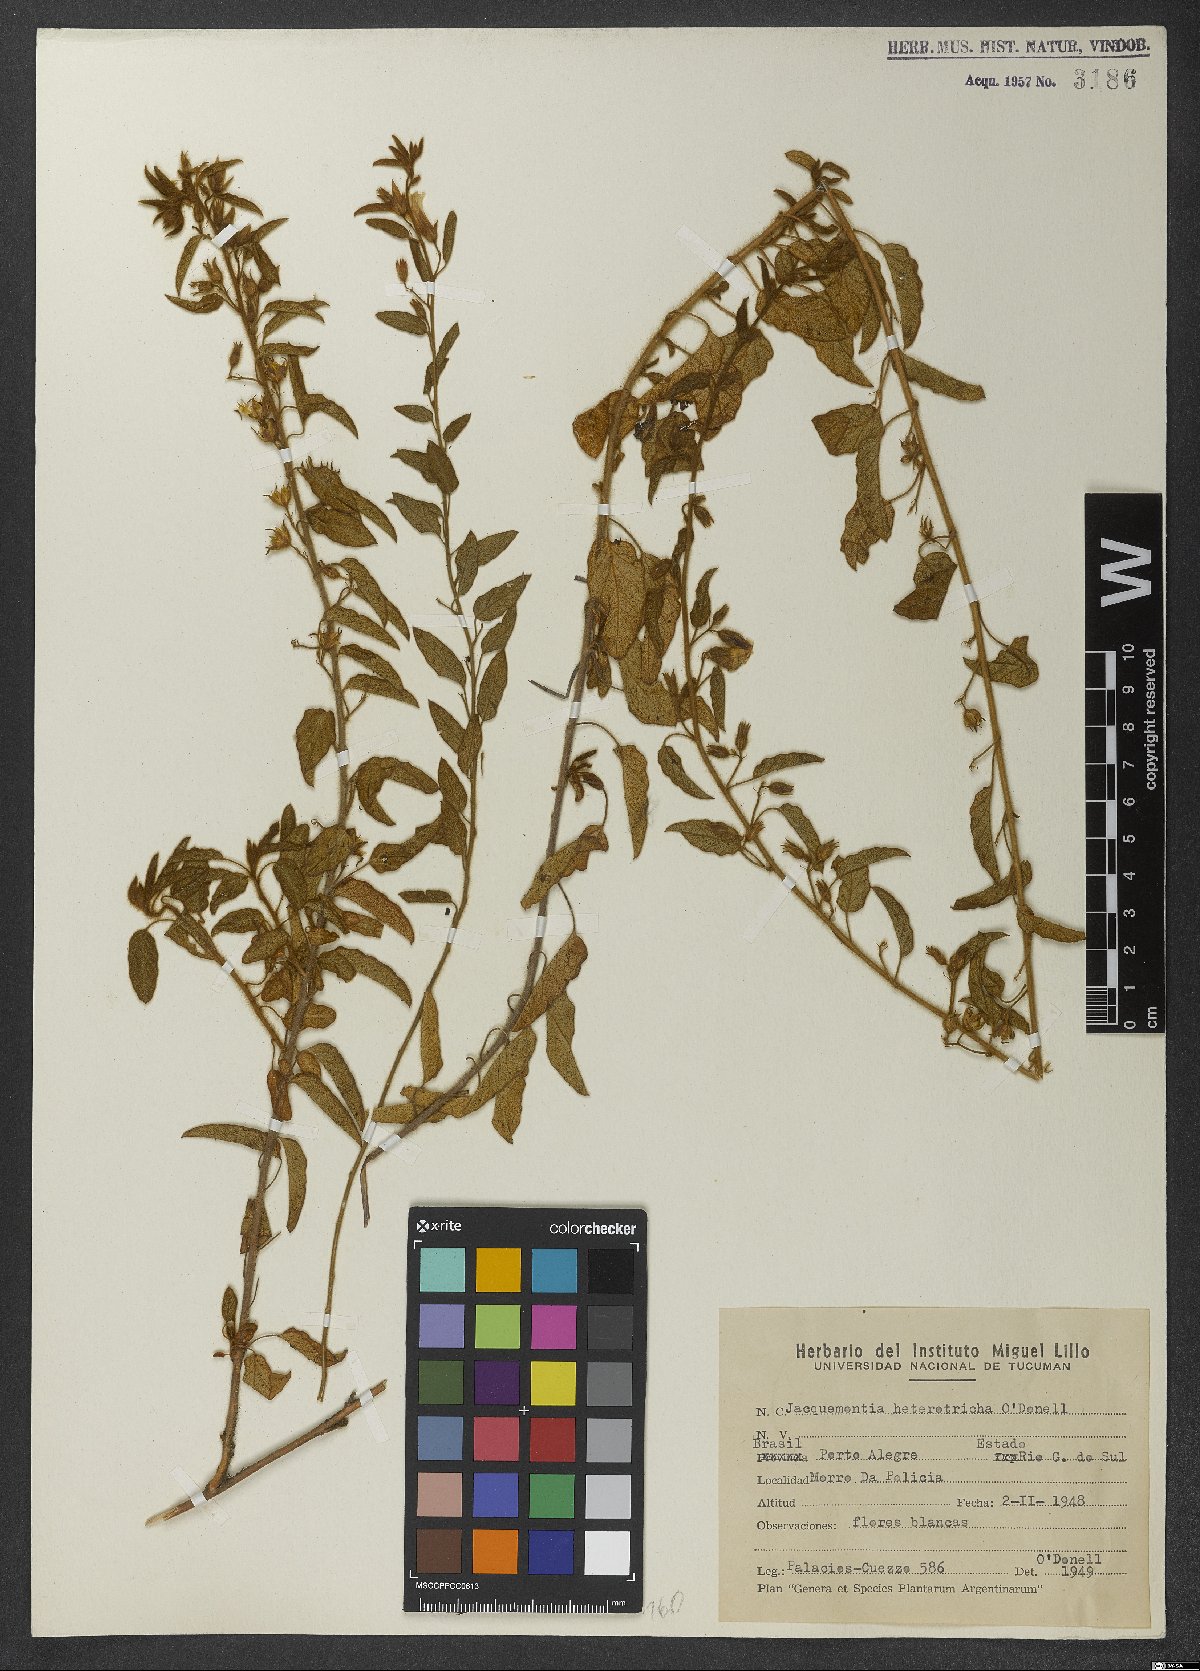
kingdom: Plantae
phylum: Tracheophyta
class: Magnoliopsida
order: Solanales
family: Convolvulaceae
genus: Jacquemontia
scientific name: Jacquemontia heterotricha
